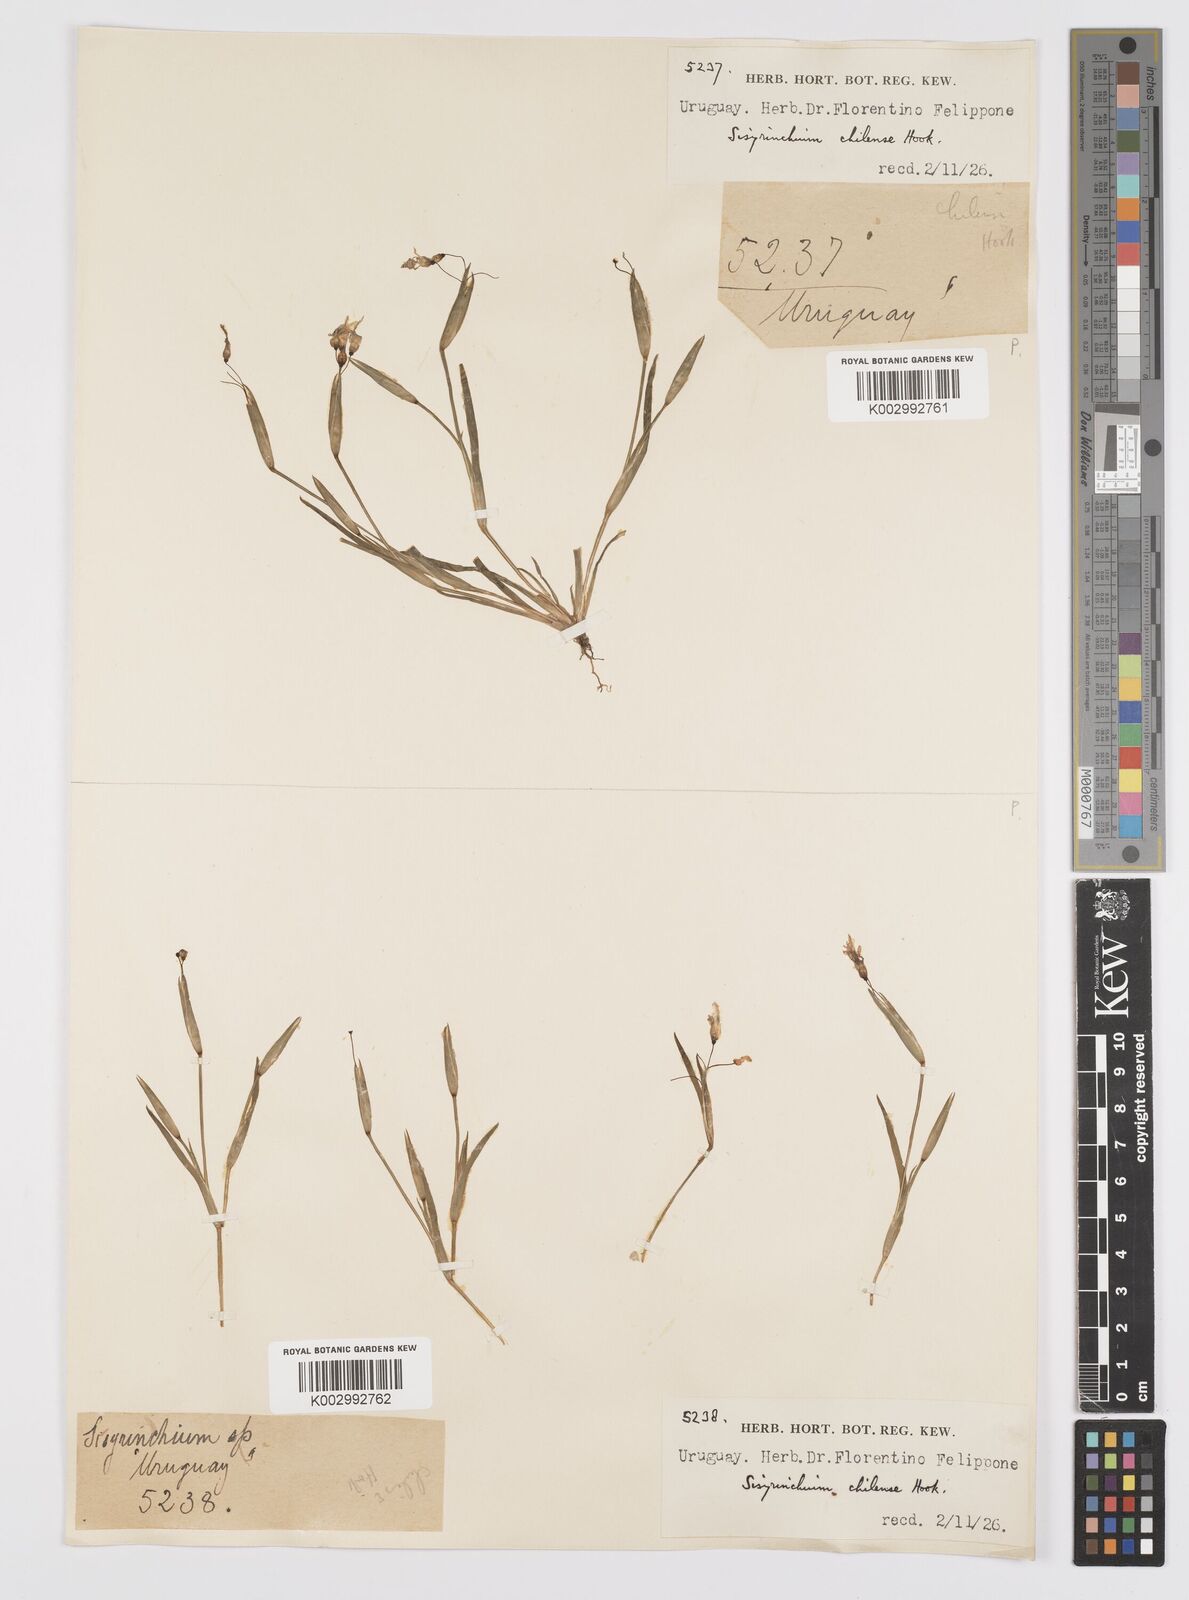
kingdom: Plantae
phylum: Tracheophyta
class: Liliopsida
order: Asparagales
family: Iridaceae
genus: Sisyrinchium
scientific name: Sisyrinchium chilense
